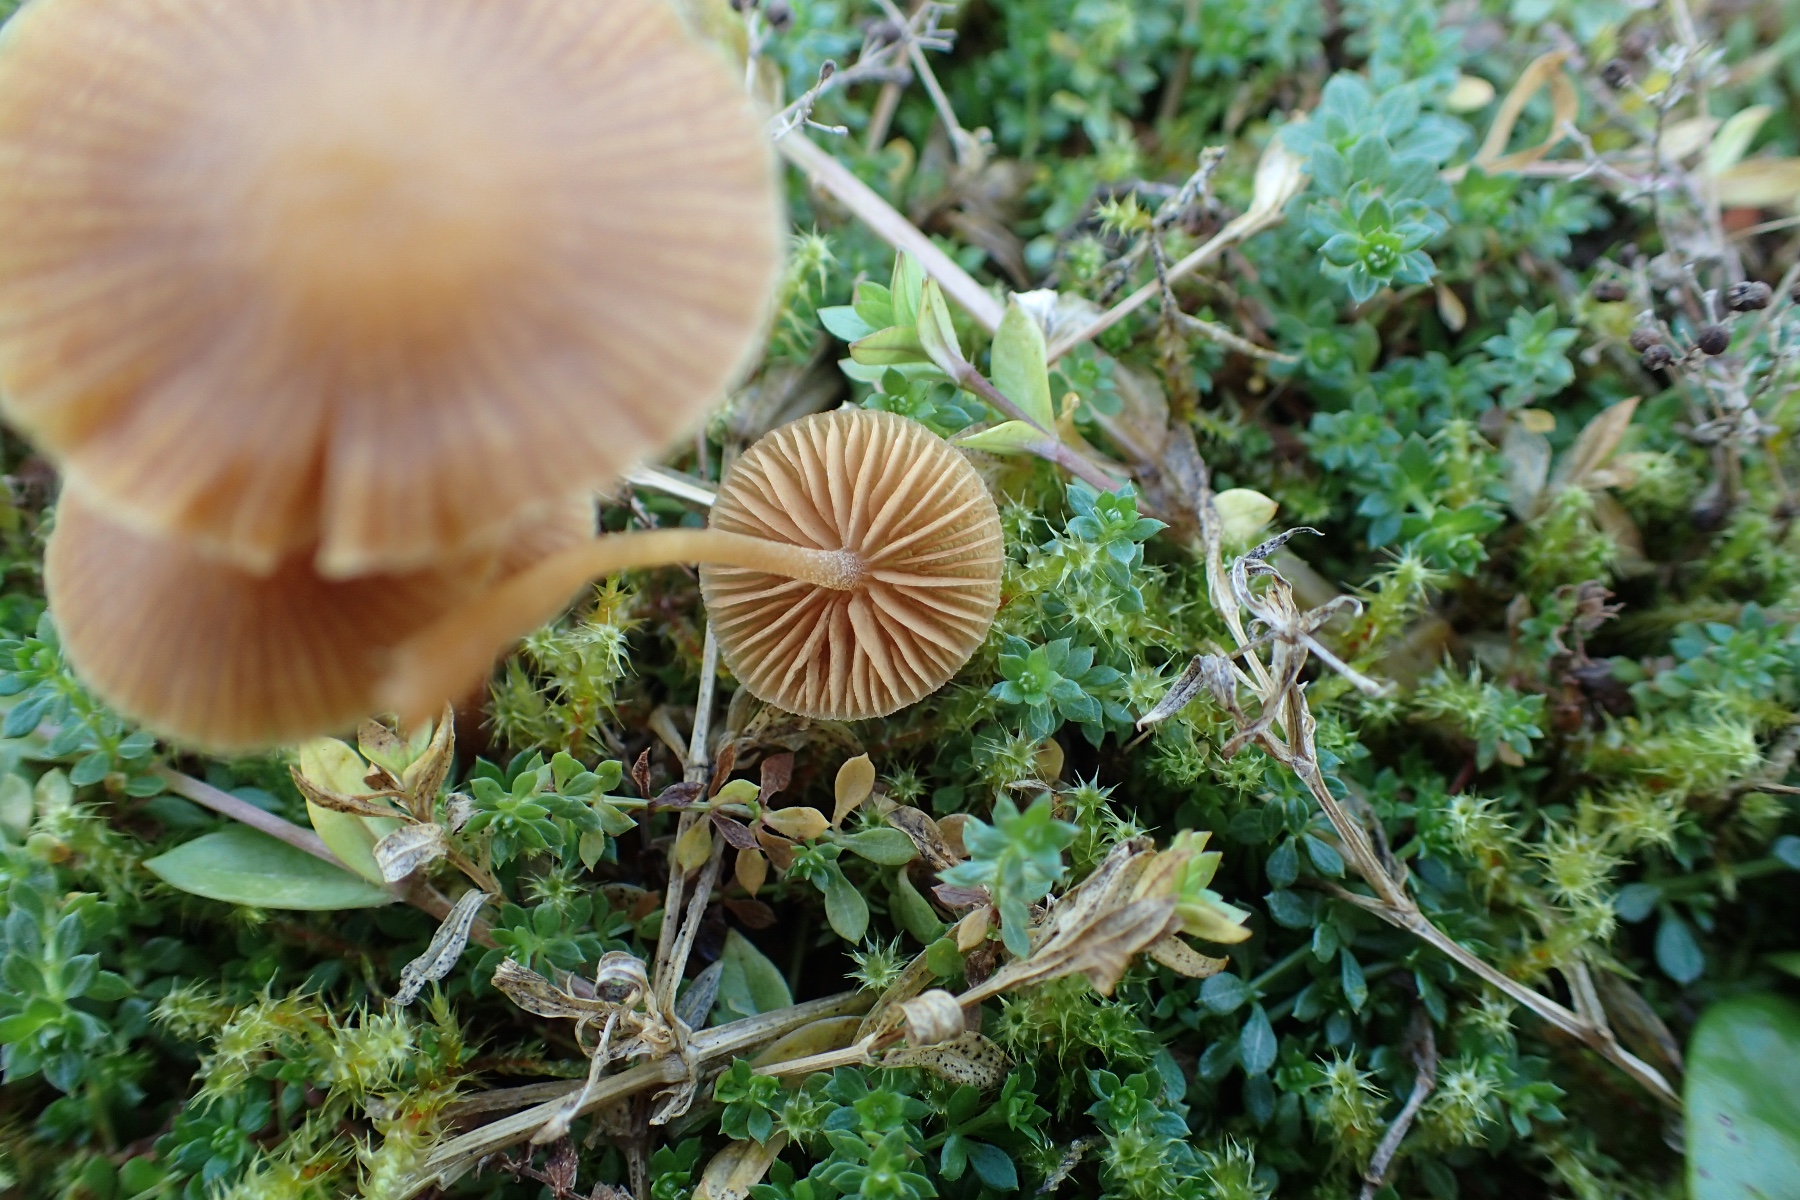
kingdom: Fungi
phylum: Basidiomycota
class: Agaricomycetes
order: Agaricales
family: Hymenogastraceae
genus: Galerina
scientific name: Galerina
